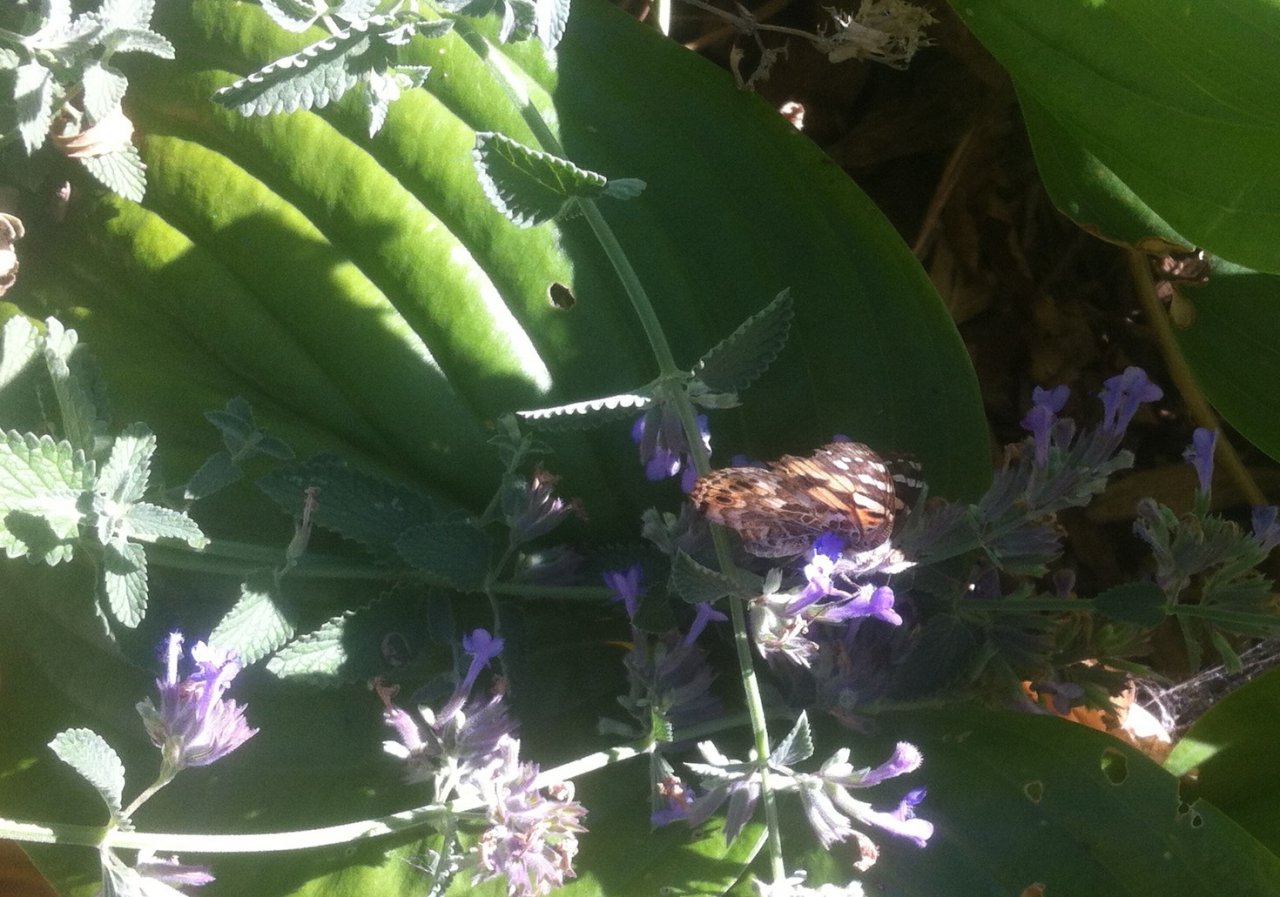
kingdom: Animalia
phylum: Arthropoda
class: Insecta
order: Lepidoptera
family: Nymphalidae
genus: Vanessa
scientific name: Vanessa cardui
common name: Painted Lady
